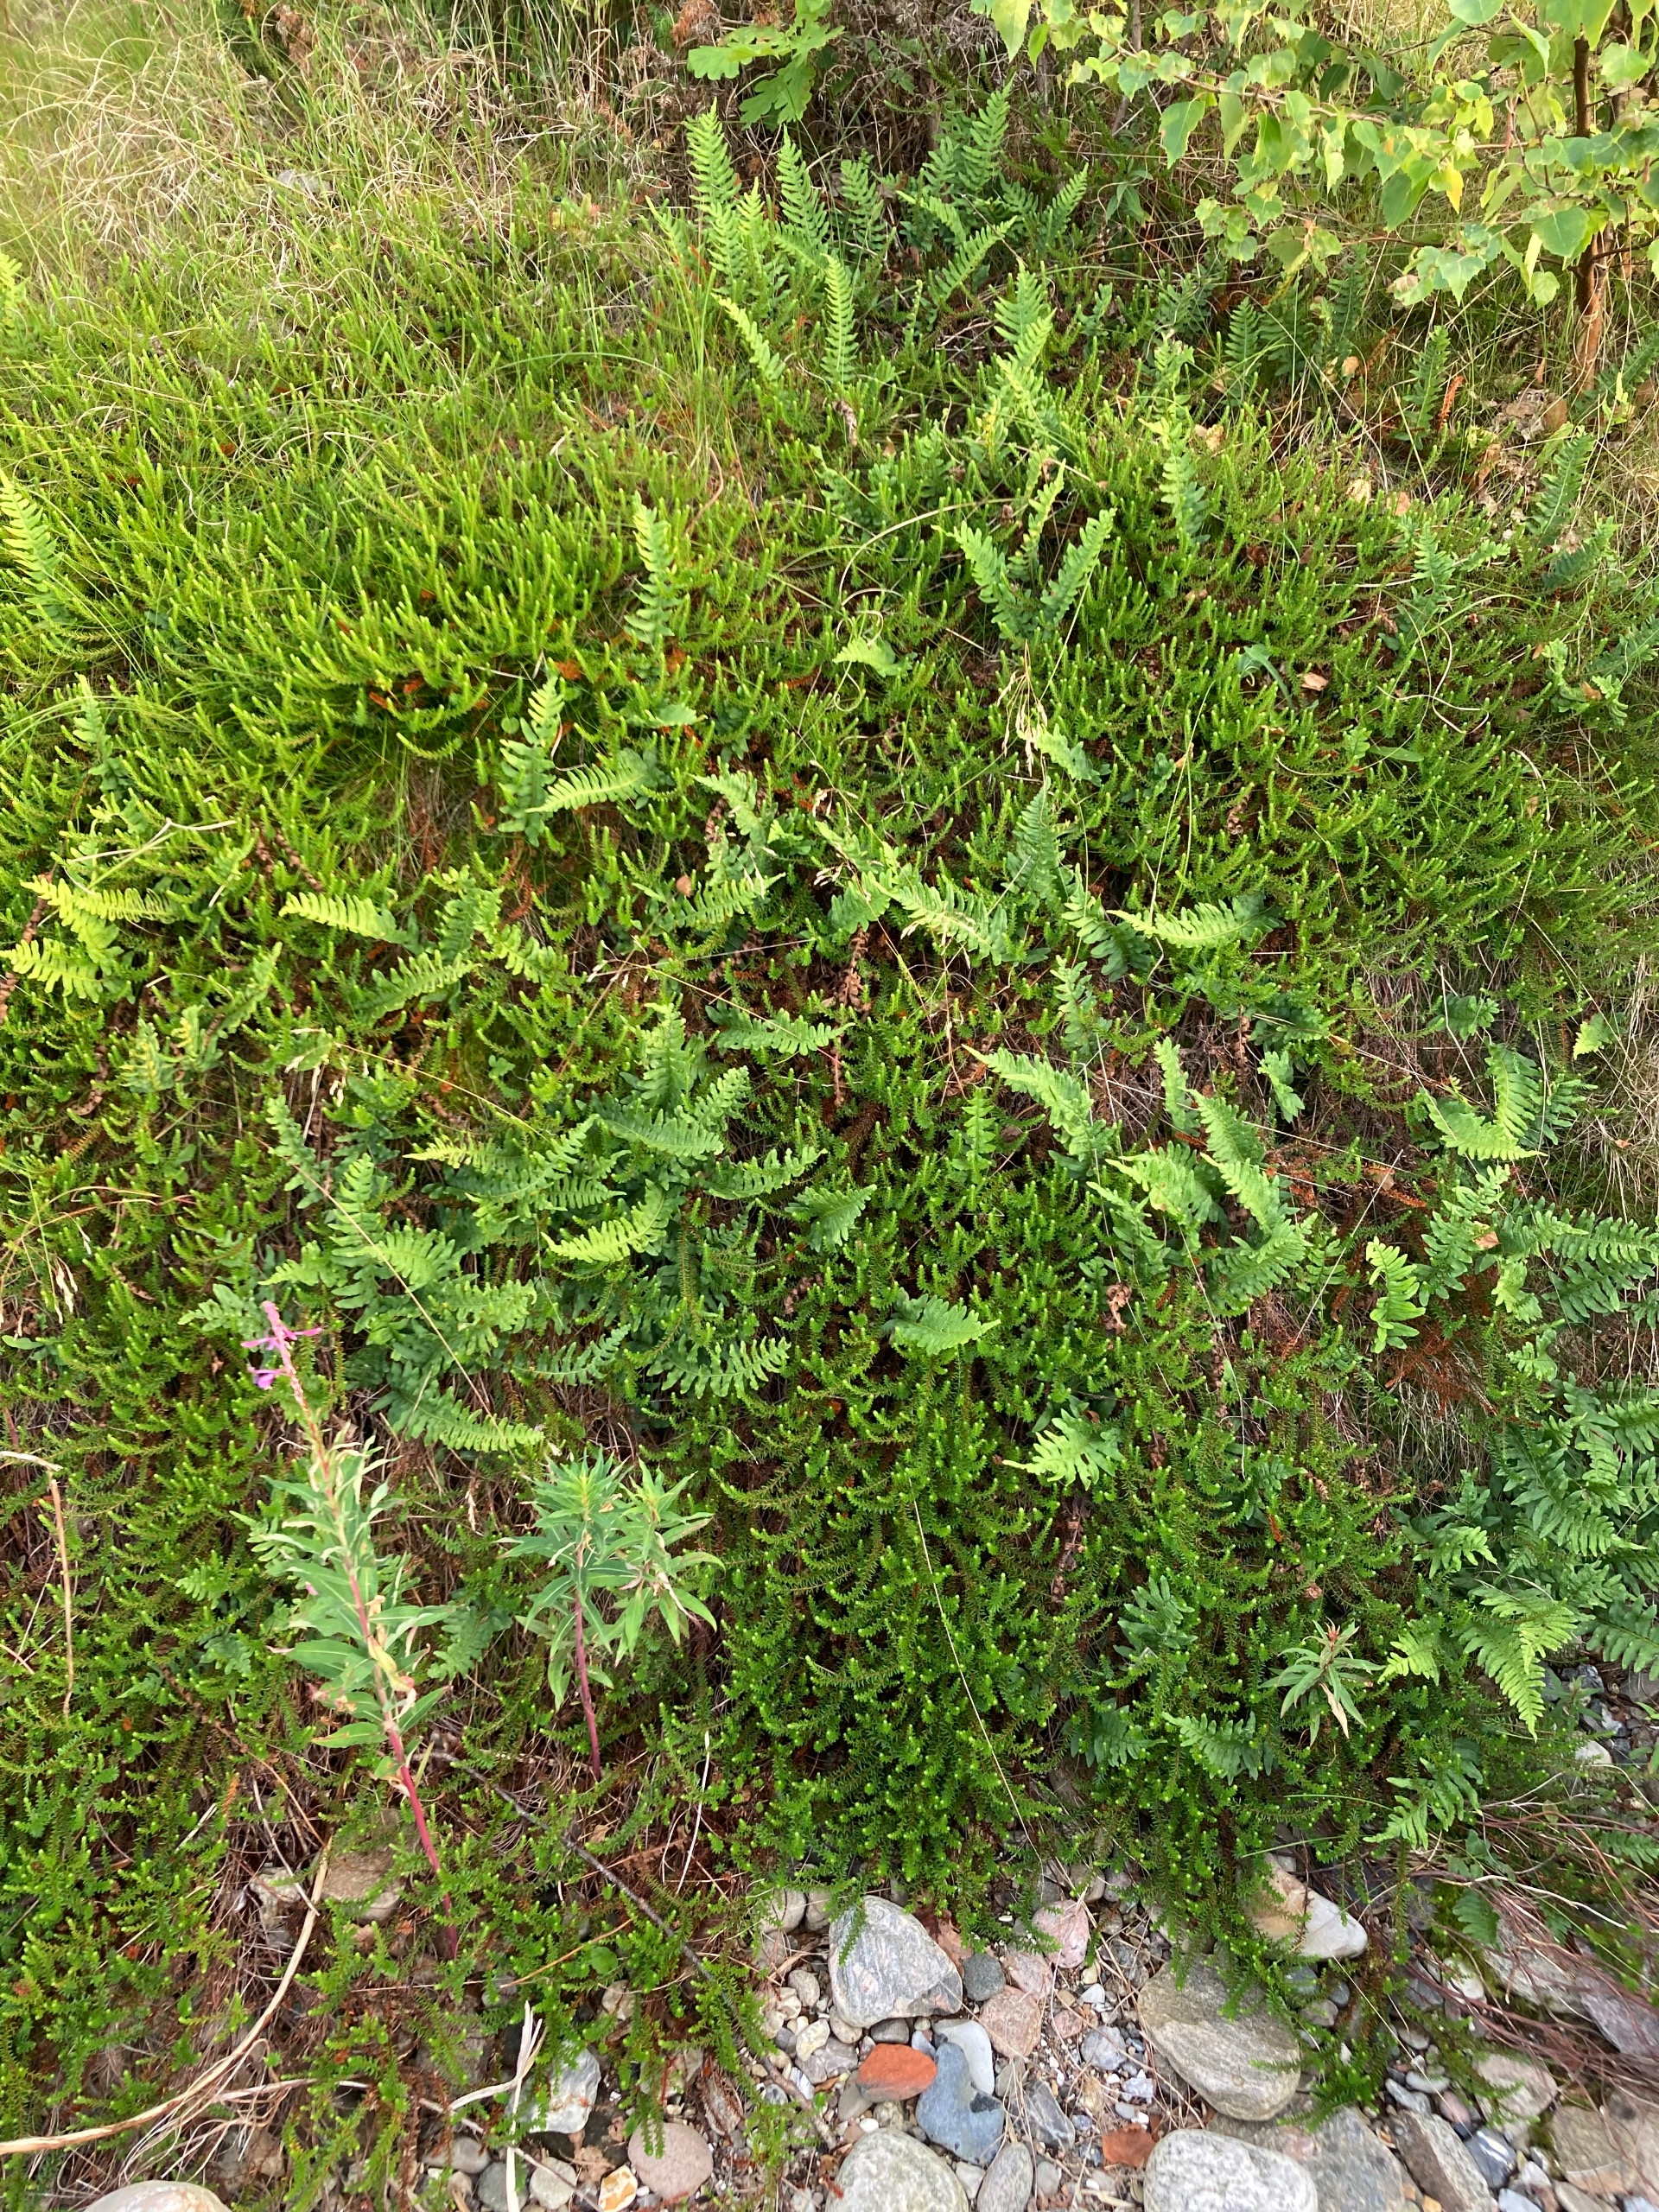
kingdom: Plantae
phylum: Tracheophyta
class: Polypodiopsida
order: Polypodiales
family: Polypodiaceae
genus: Polypodium
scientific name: Polypodium vulgare
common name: Almindelig engelsød
